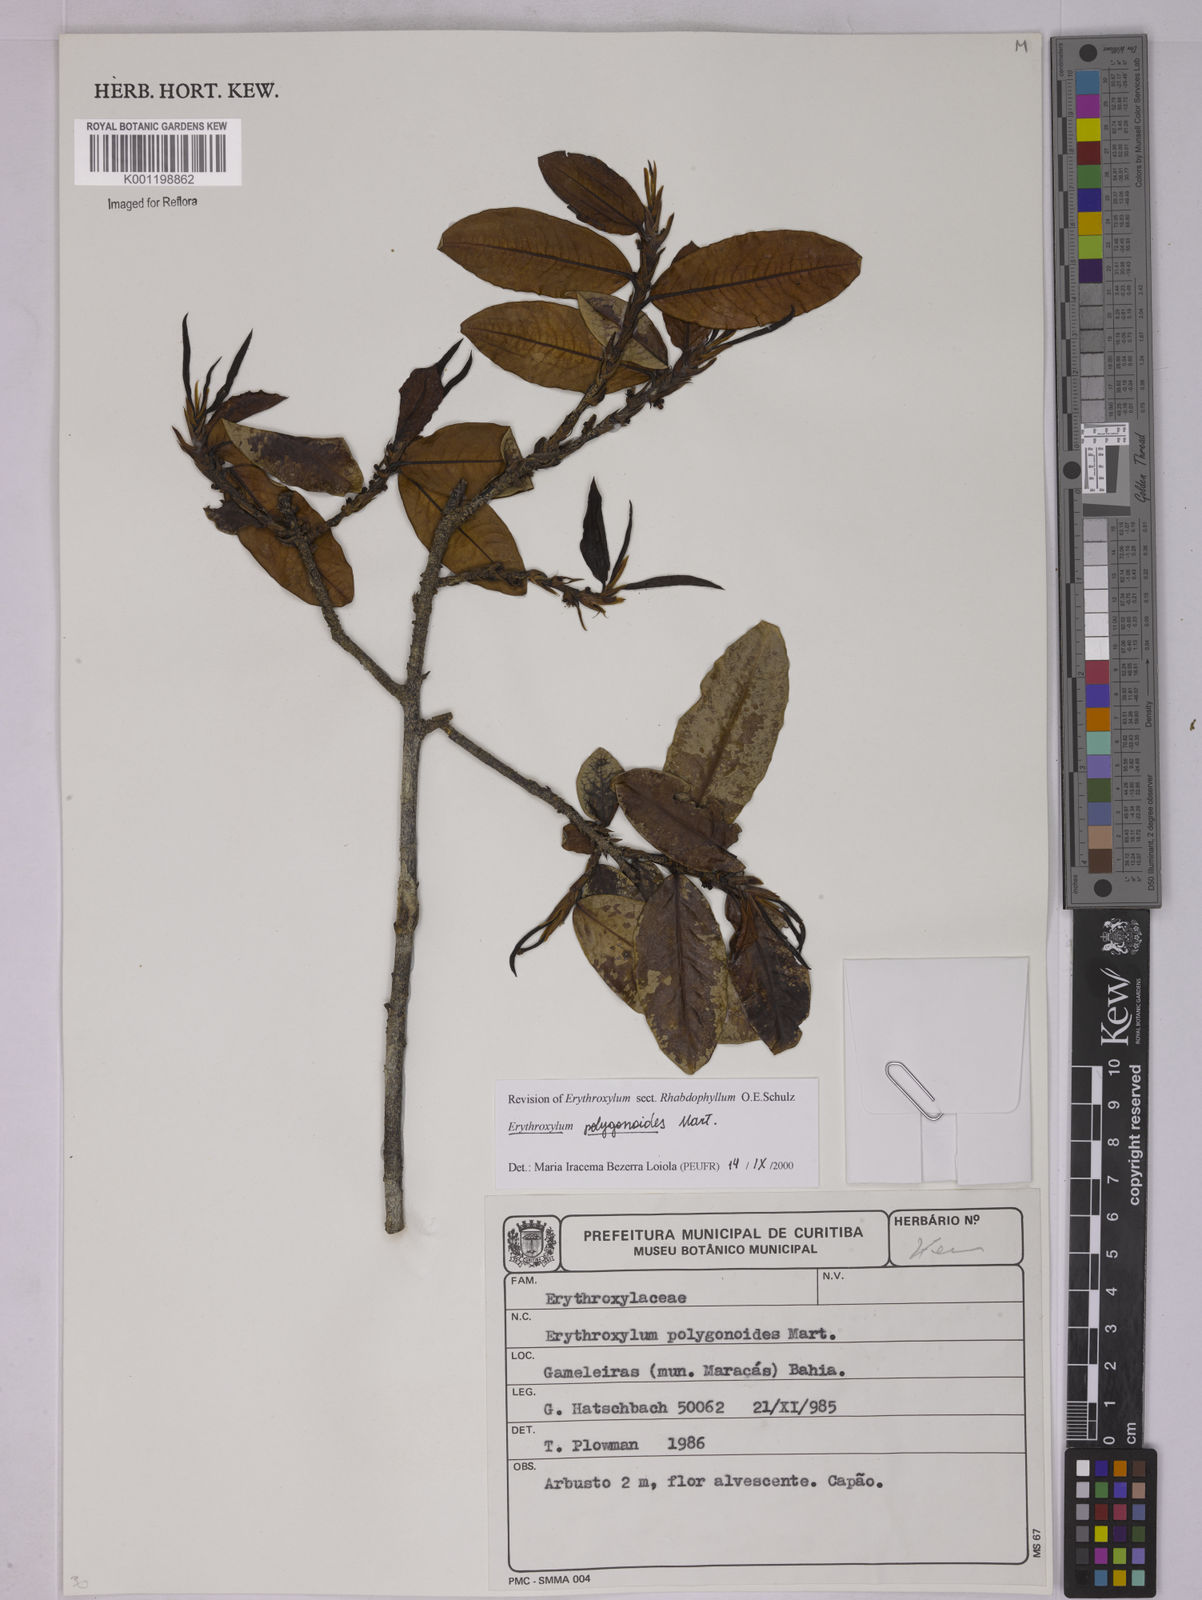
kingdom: Plantae
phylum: Tracheophyta
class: Magnoliopsida
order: Malpighiales
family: Erythroxylaceae
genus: Erythroxylum
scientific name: Erythroxylum polygonoides
